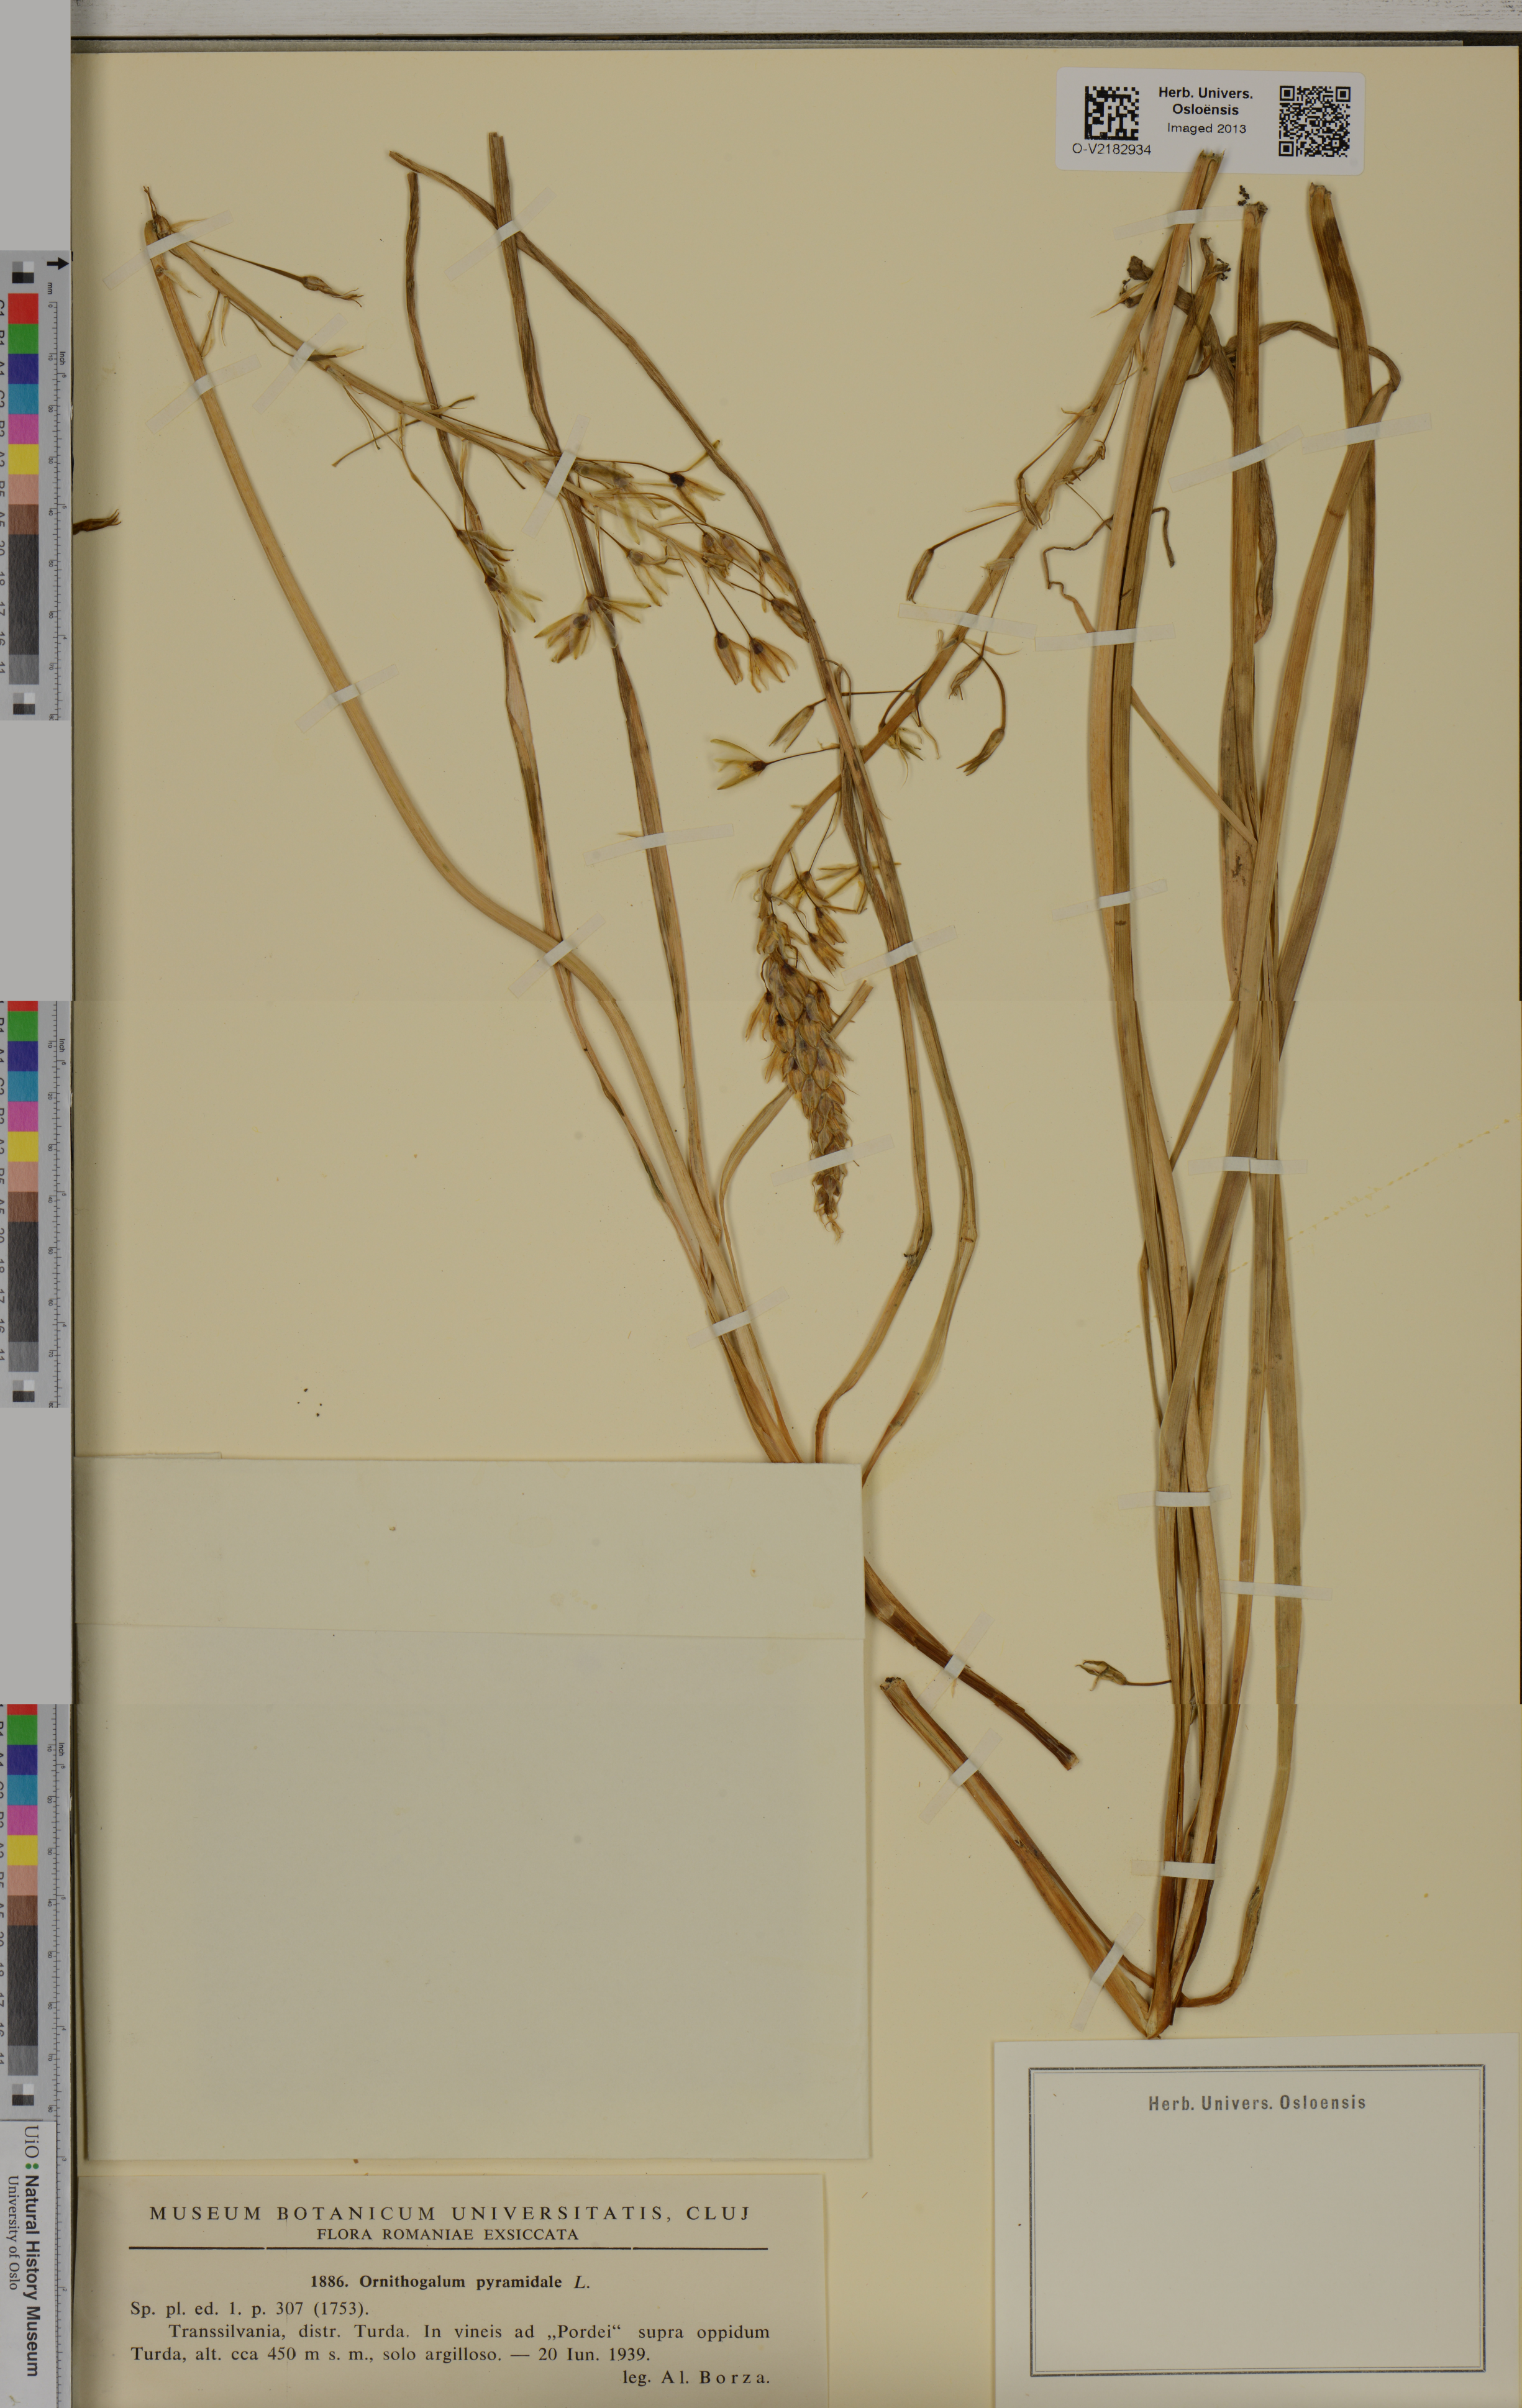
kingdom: Plantae
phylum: Tracheophyta
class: Liliopsida
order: Asparagales
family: Asparagaceae
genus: Ornithogalum
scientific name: Ornithogalum pyramidale
